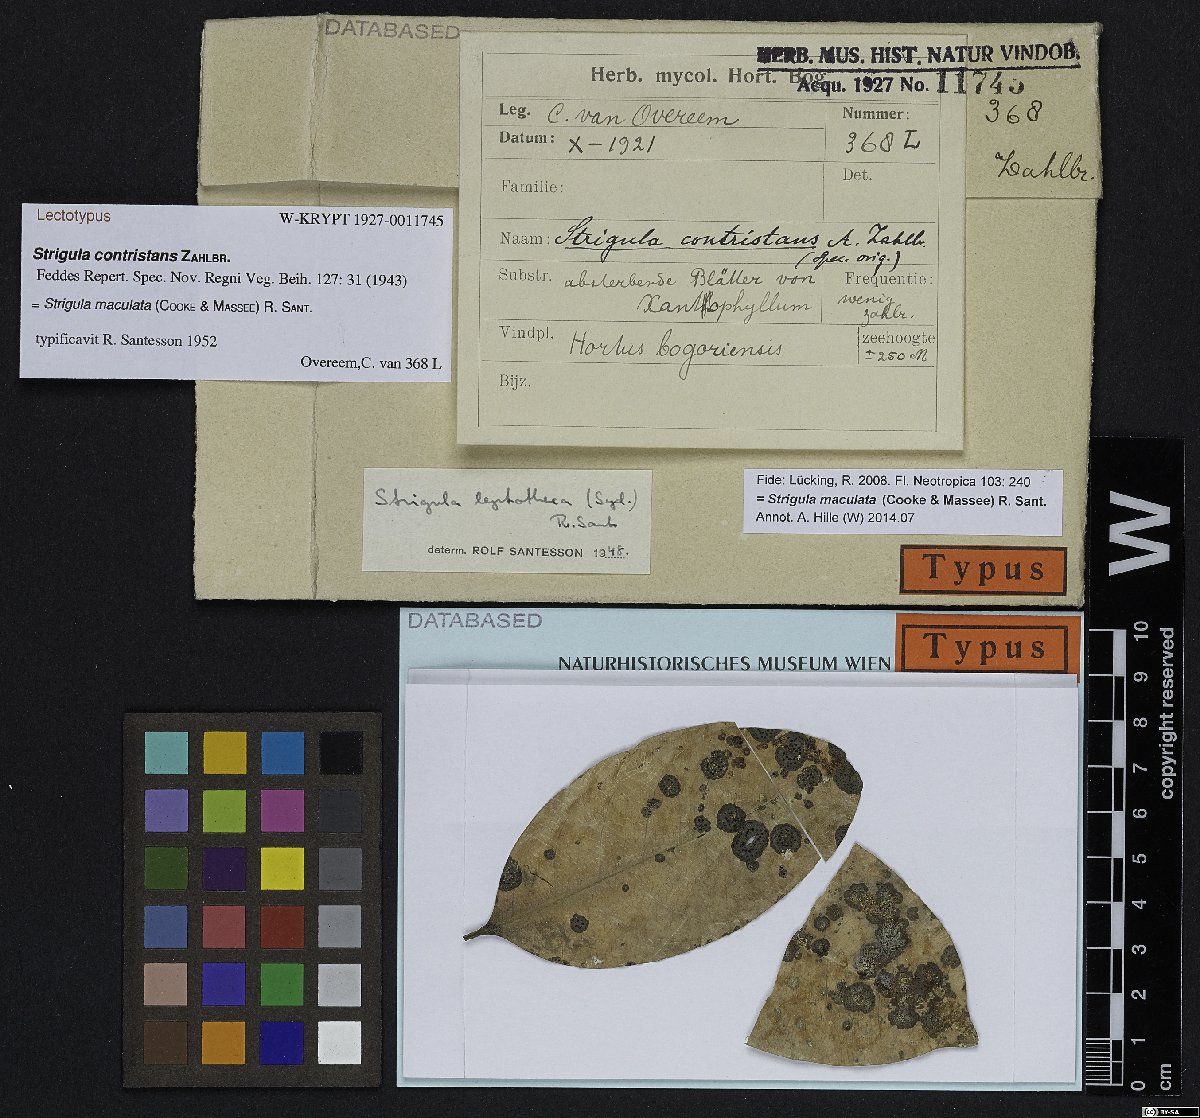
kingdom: Fungi
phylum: Ascomycota
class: Dothideomycetes
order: Strigulales
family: Strigulaceae
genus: Strigula
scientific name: Strigula
